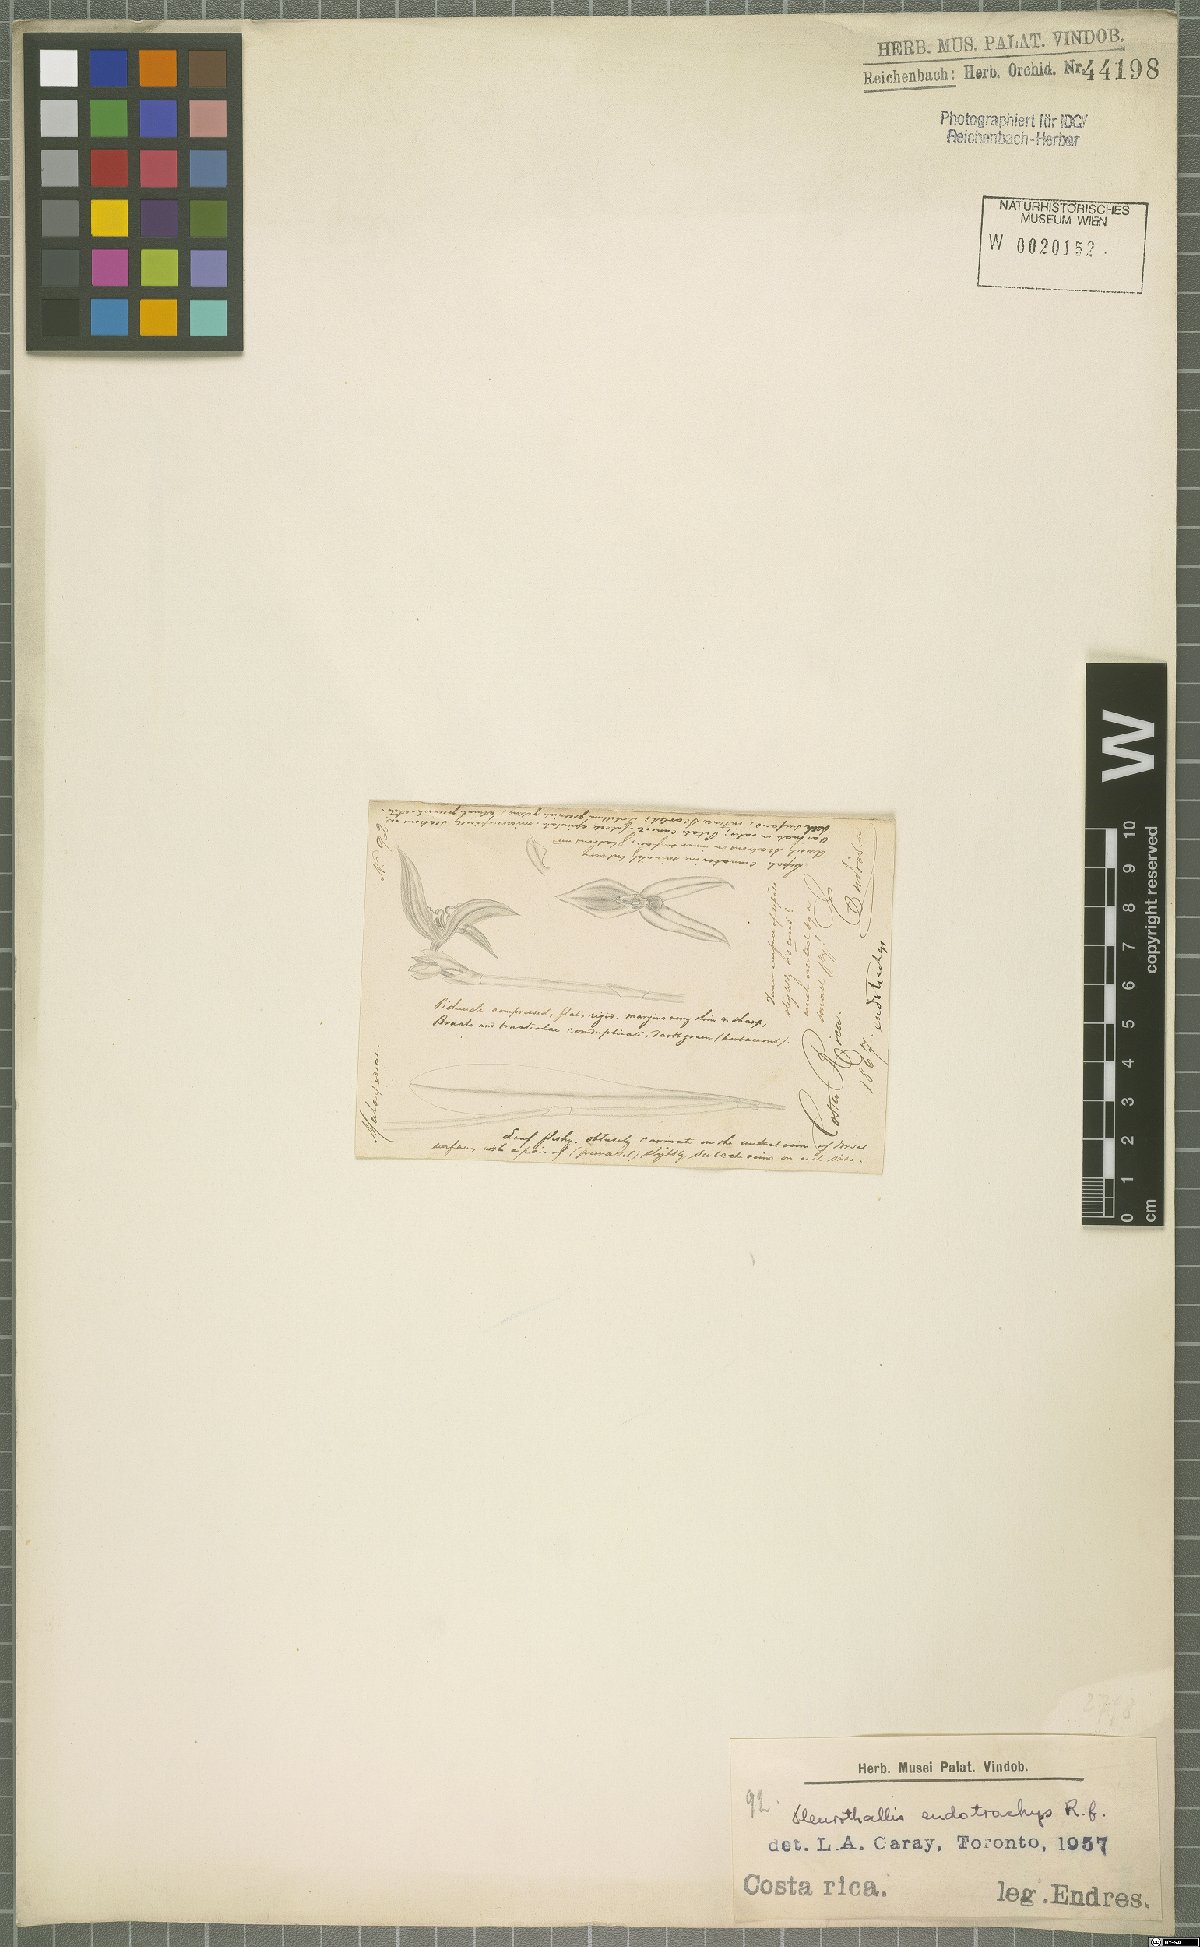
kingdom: Plantae
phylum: Tracheophyta
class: Liliopsida
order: Asparagales
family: Orchidaceae
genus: Specklinia
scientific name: Specklinia endotrachys
